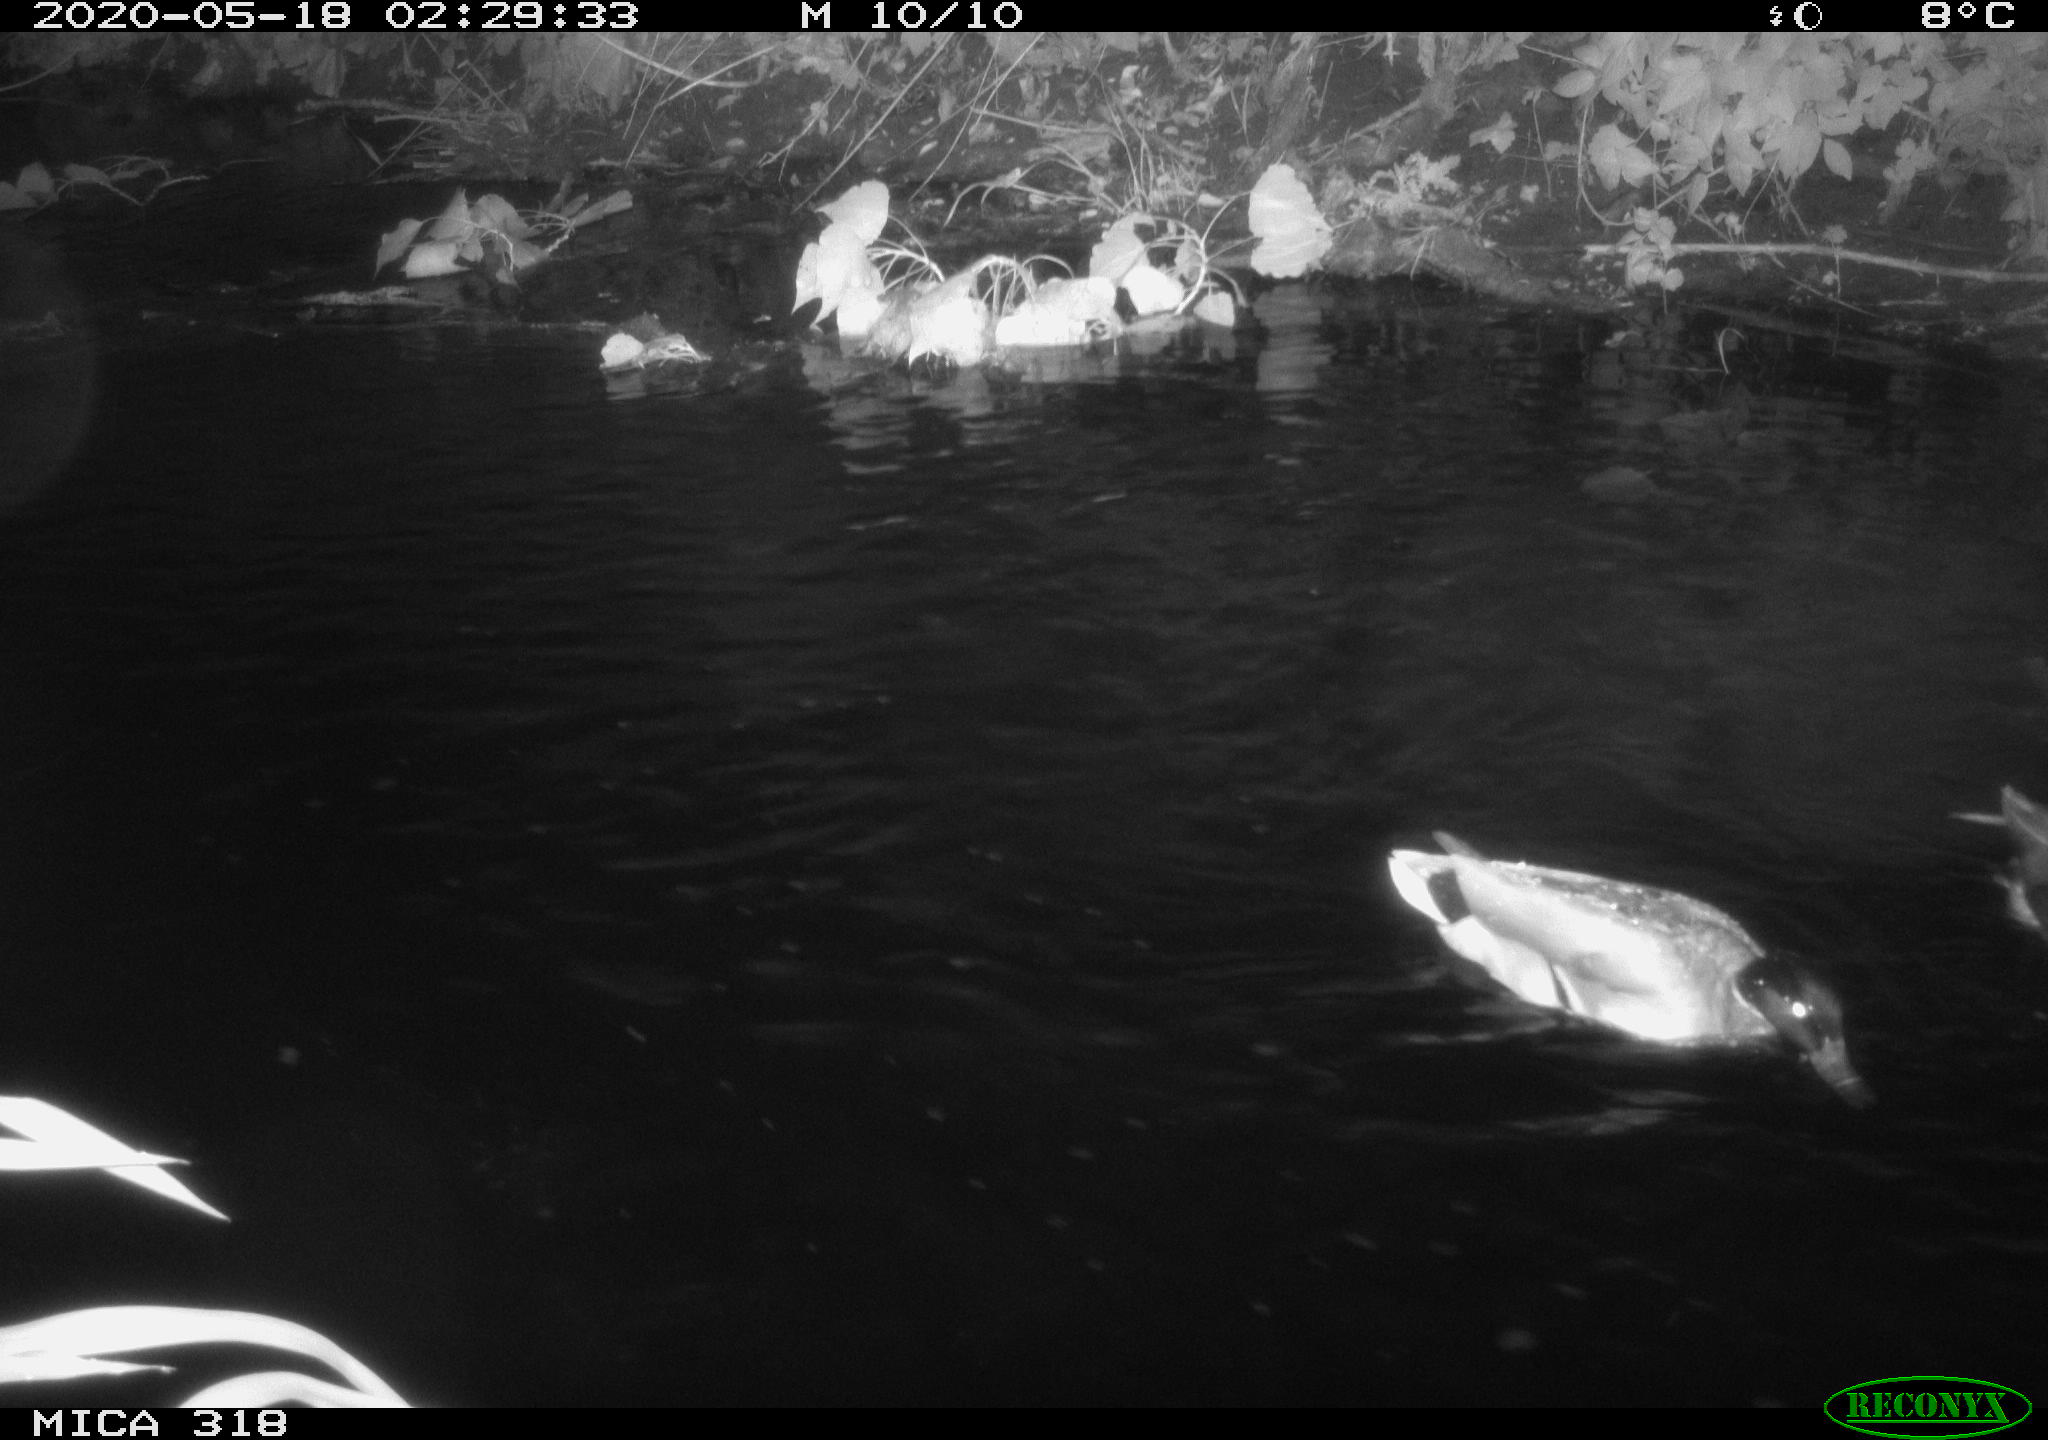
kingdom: Animalia
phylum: Chordata
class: Aves
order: Anseriformes
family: Anatidae
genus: Anas
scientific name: Anas platyrhynchos
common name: Mallard
